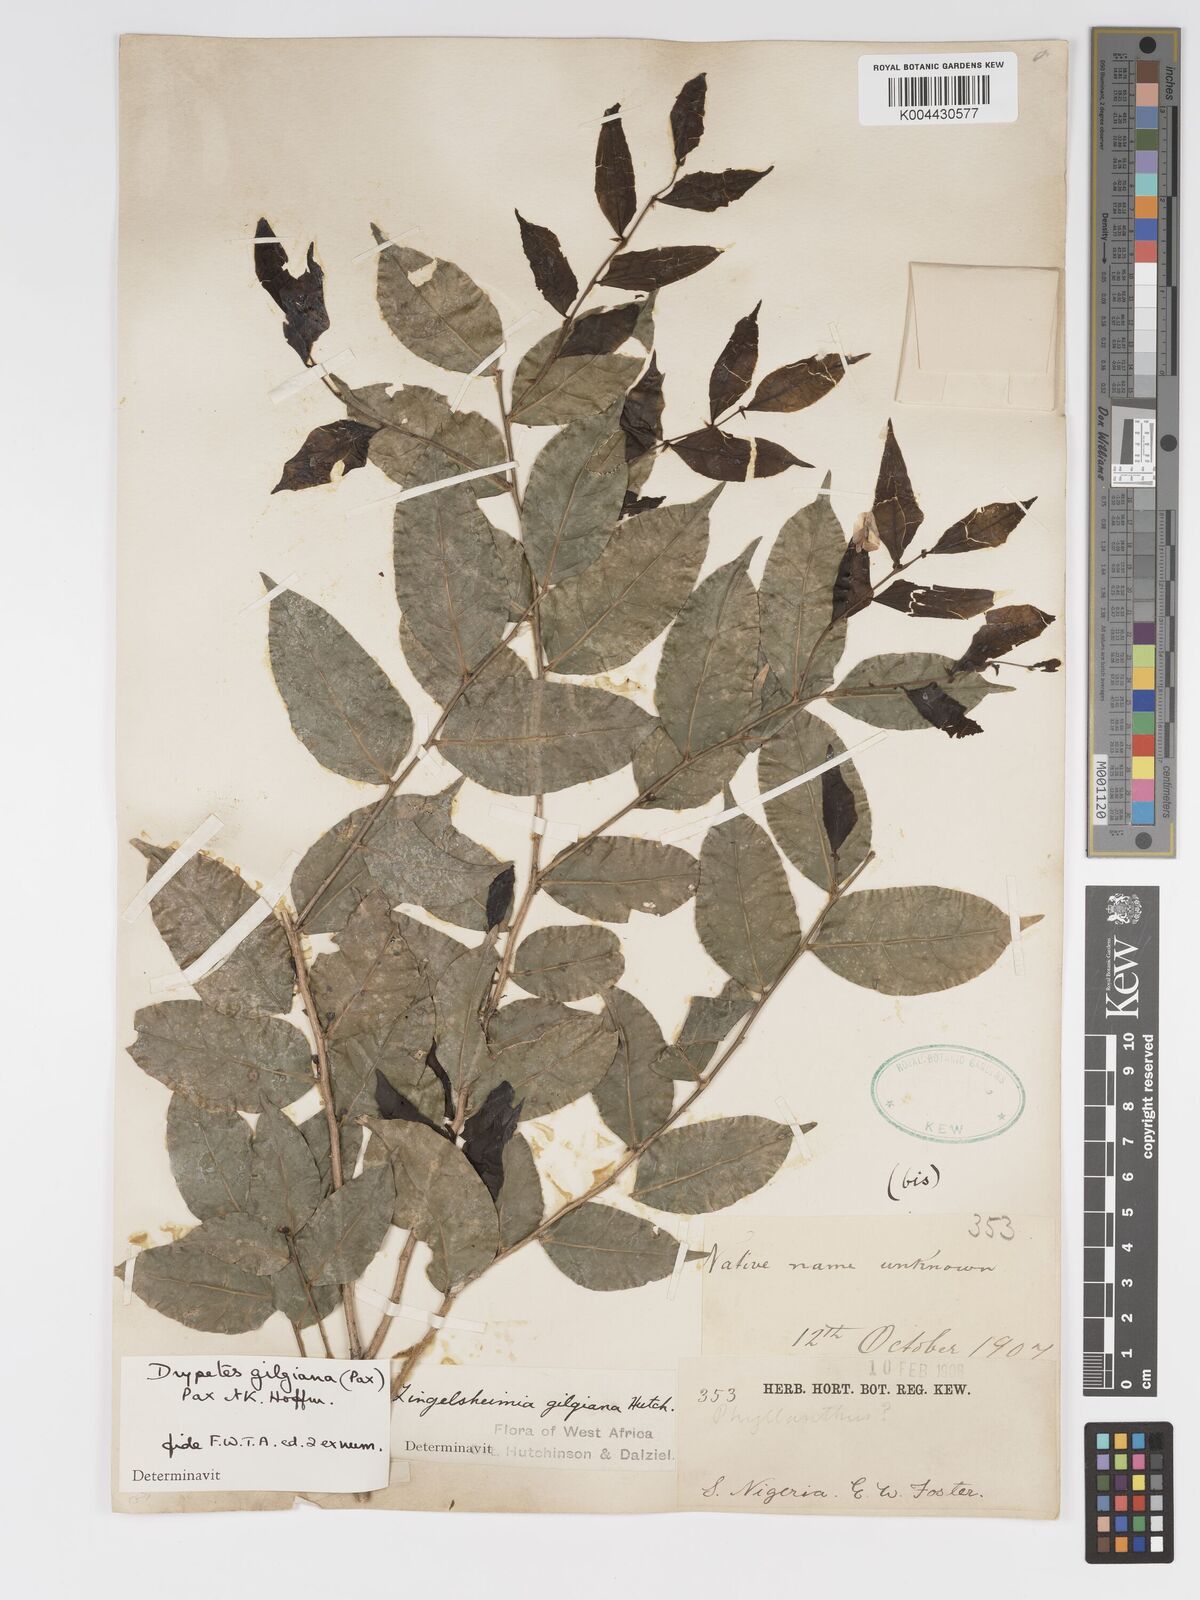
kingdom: Plantae
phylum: Tracheophyta
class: Magnoliopsida
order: Malpighiales
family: Putranjivaceae
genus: Drypetes
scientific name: Drypetes gilgiana
